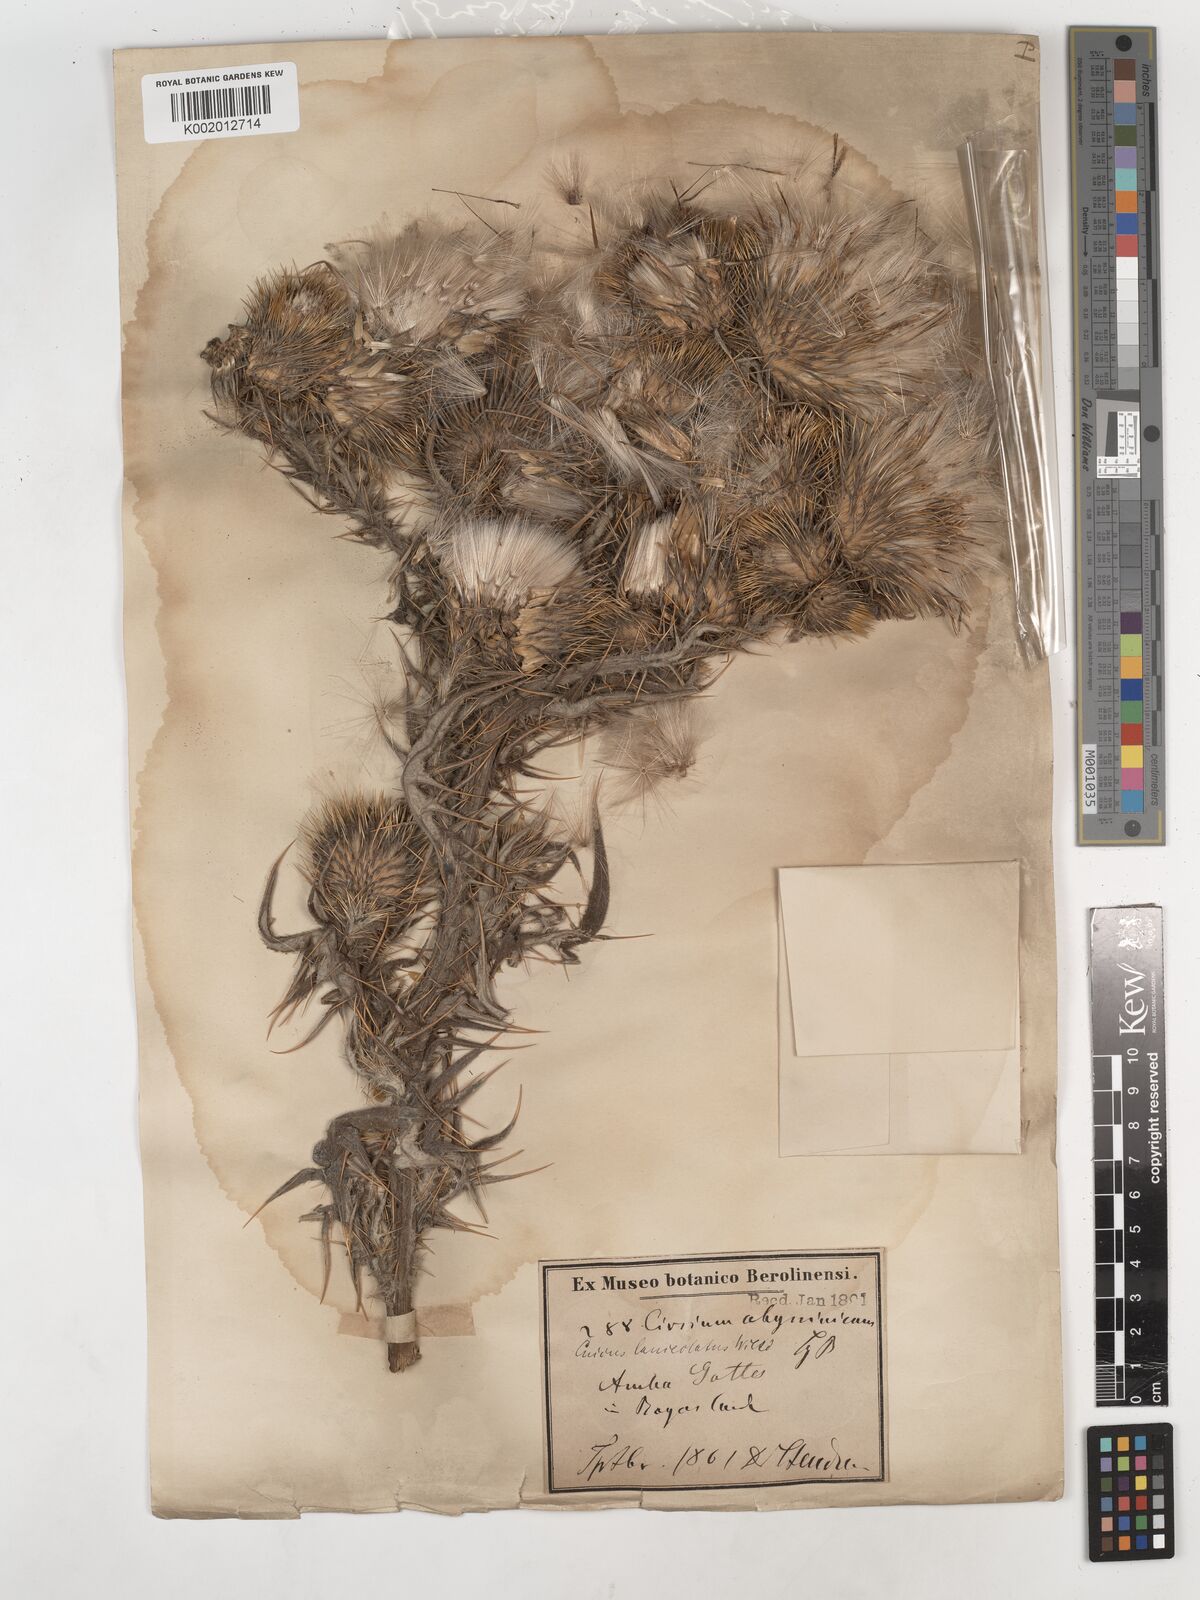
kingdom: Plantae
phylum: Tracheophyta
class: Magnoliopsida
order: Asterales
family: Asteraceae
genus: Cirsium
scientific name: Cirsium vulgare
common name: Bull thistle
